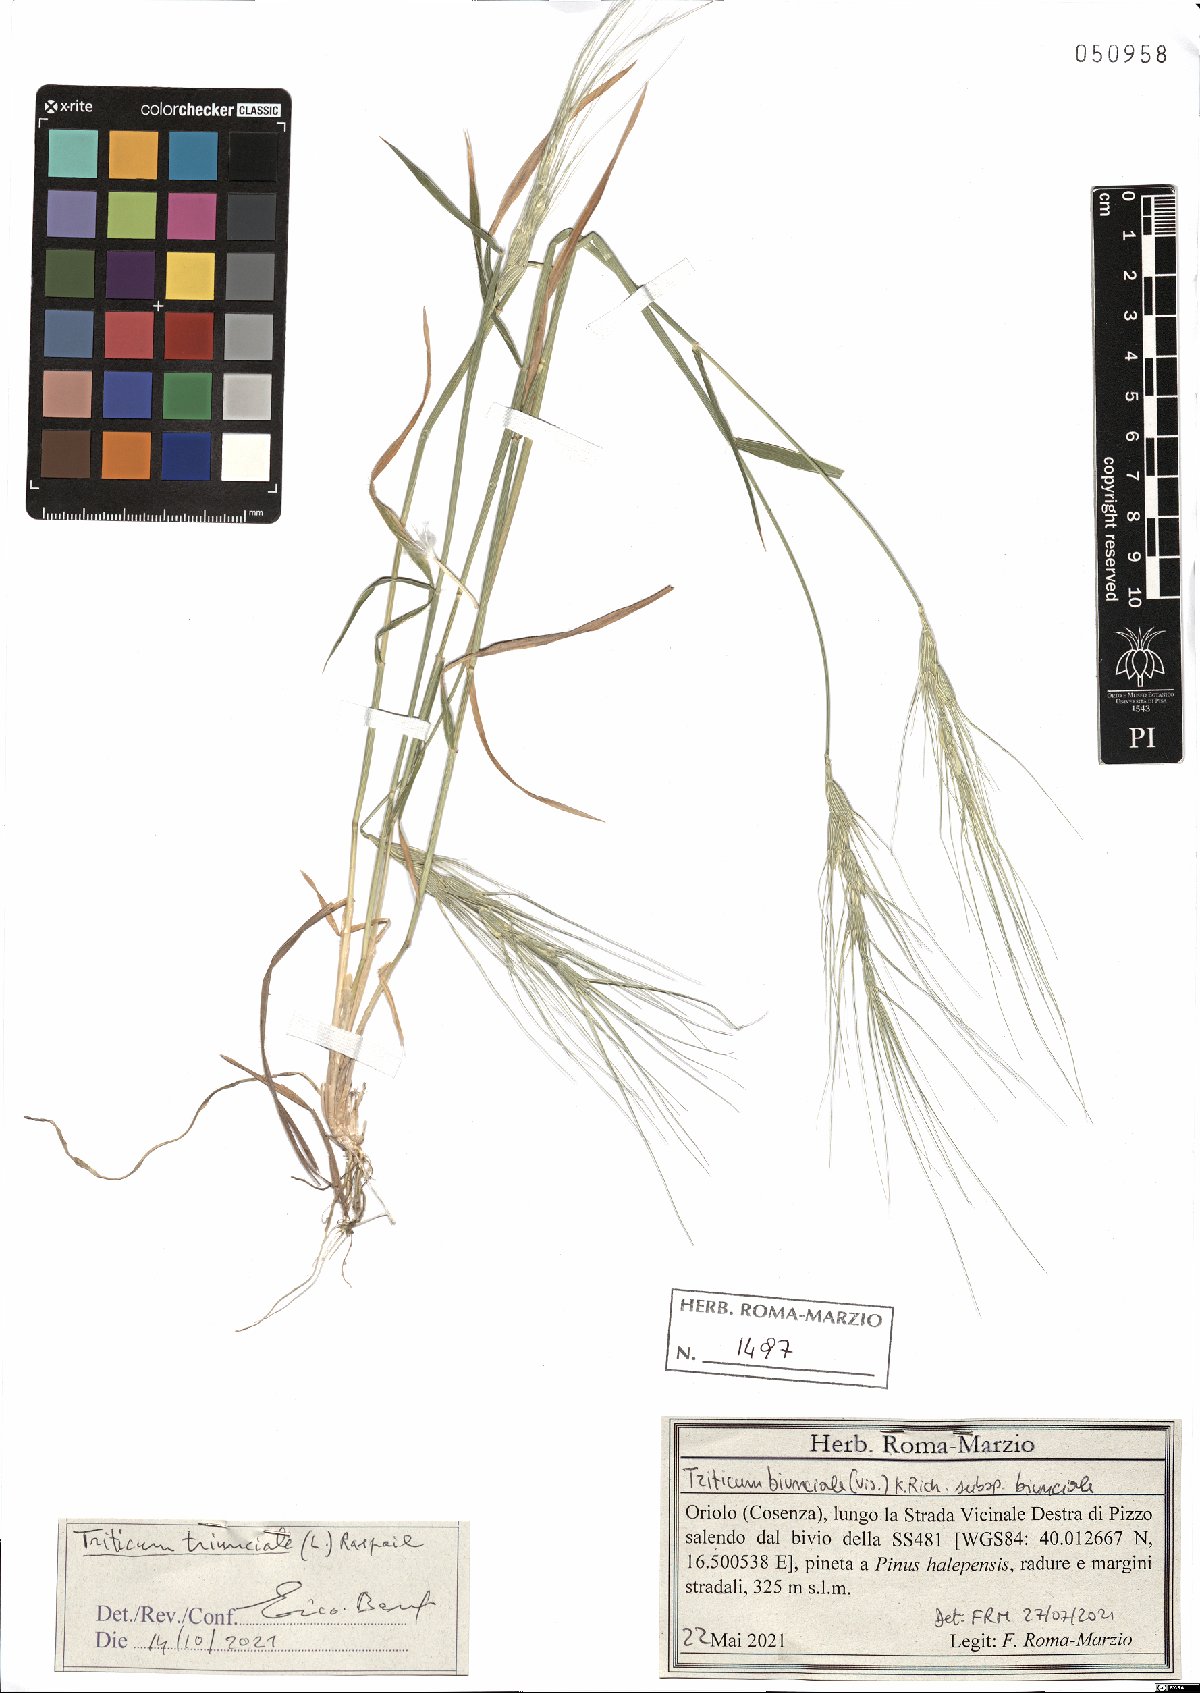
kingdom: Plantae
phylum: Tracheophyta
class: Liliopsida
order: Poales
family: Poaceae
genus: Aegilops
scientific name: Aegilops triuncialis
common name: Barb goat grass
